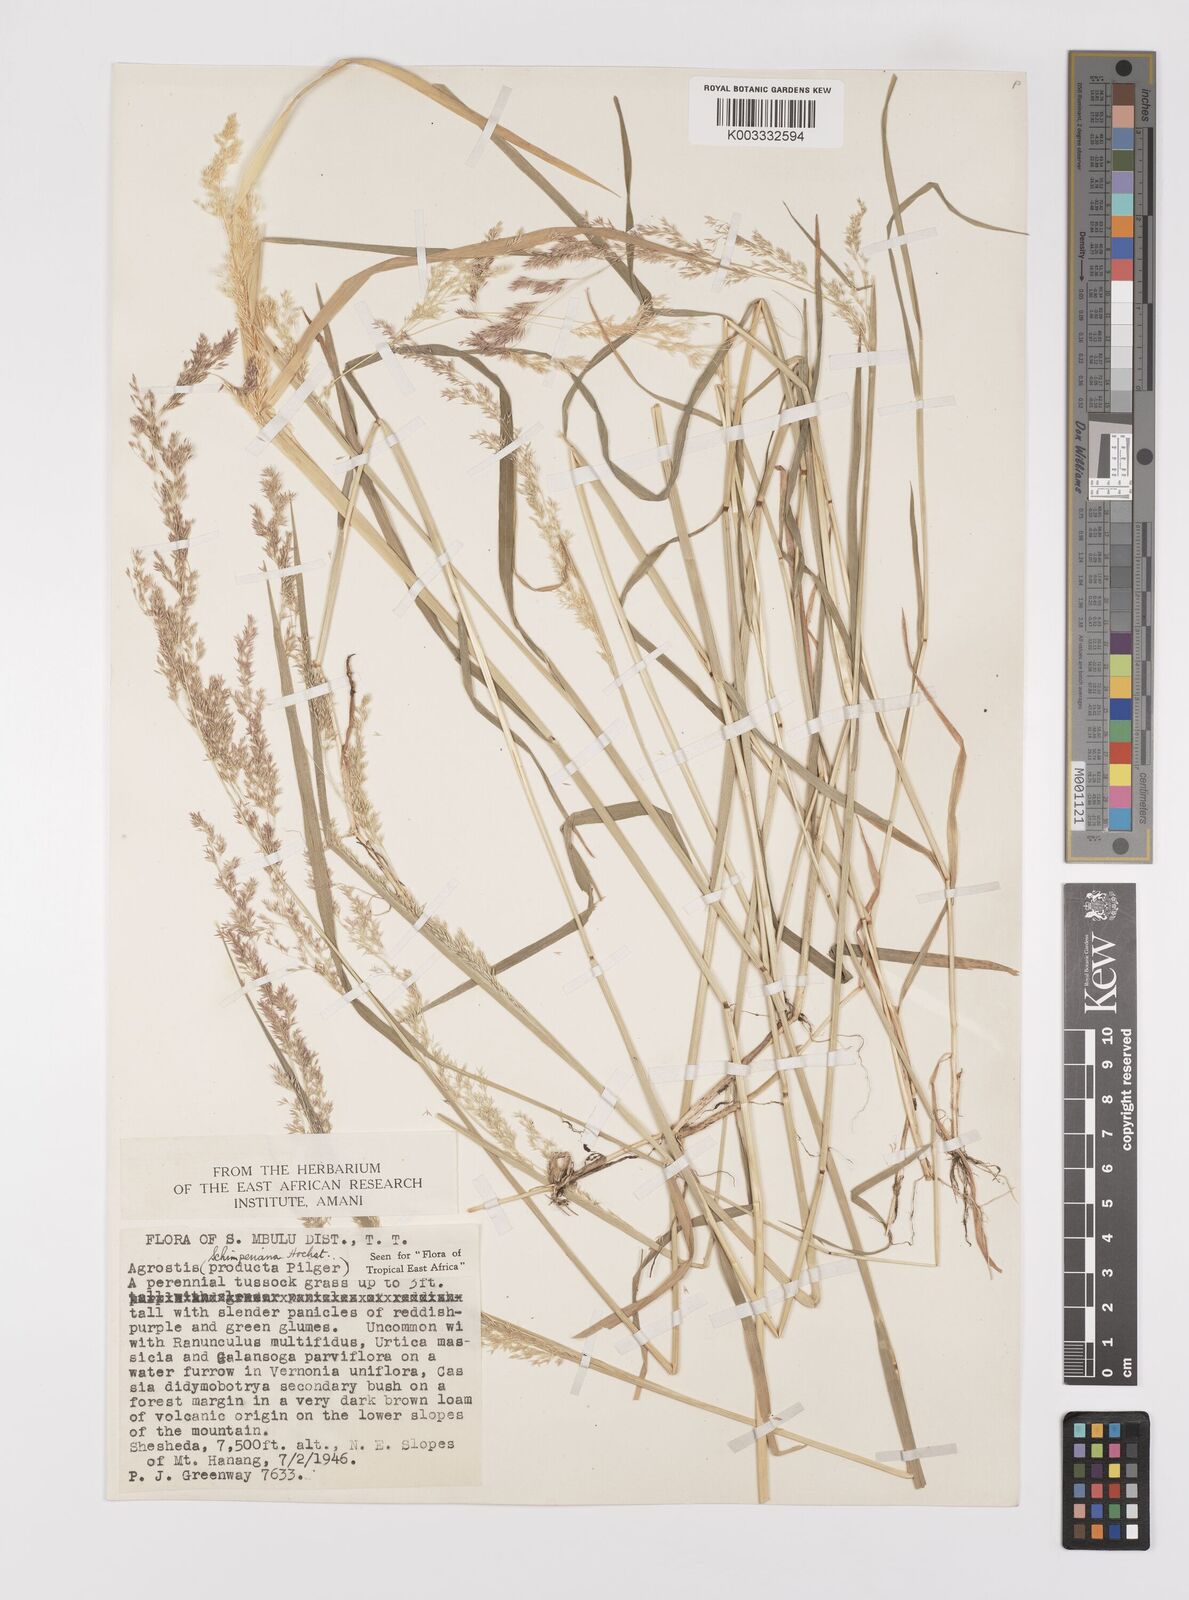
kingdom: Plantae
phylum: Tracheophyta
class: Liliopsida
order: Poales
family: Poaceae
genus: Polypogon
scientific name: Polypogon schimperianus
